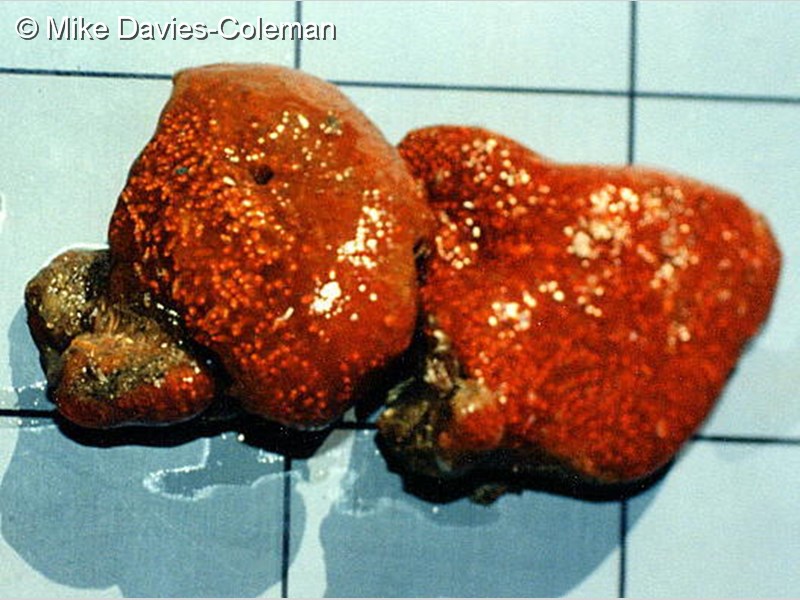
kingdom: Animalia
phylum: Chordata
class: Ascidiacea
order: Aplousobranchia
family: Polyclinidae
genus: Polyclinum
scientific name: Polyclinum
